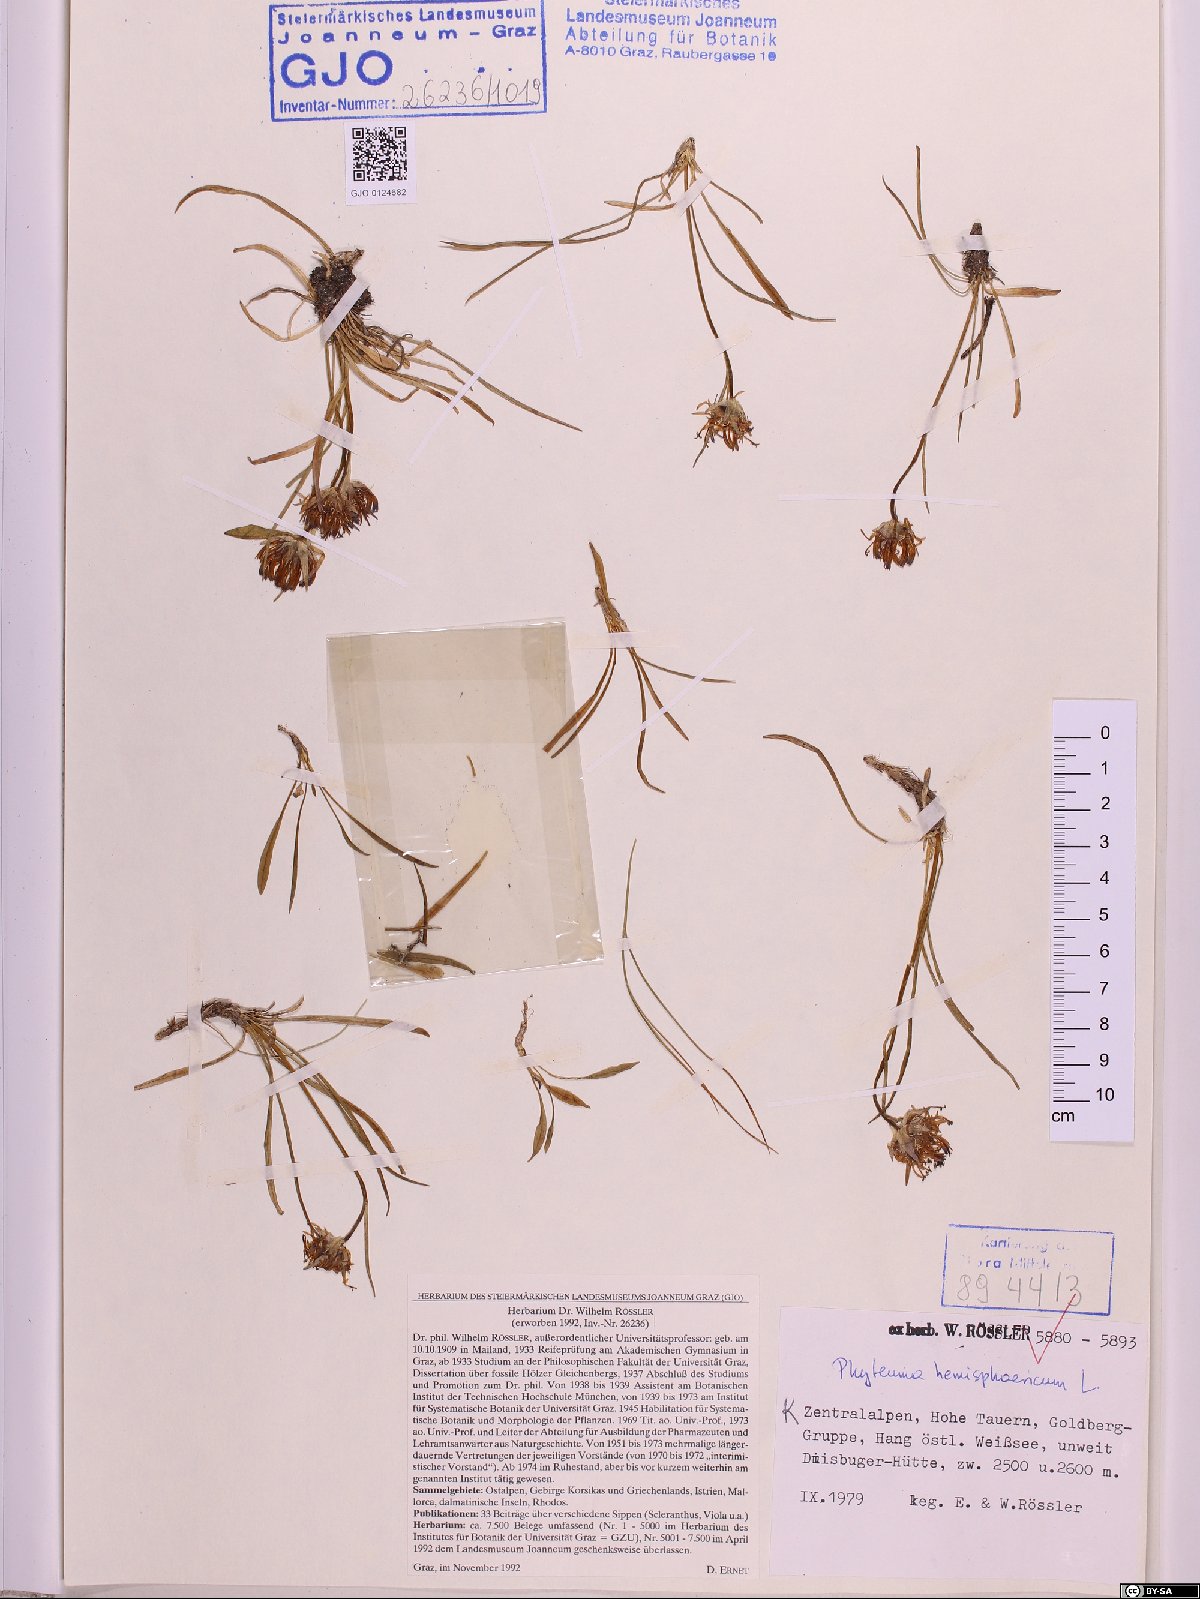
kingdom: Plantae
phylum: Tracheophyta
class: Magnoliopsida
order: Asterales
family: Campanulaceae
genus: Phyteuma
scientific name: Phyteuma hemisphaericum
